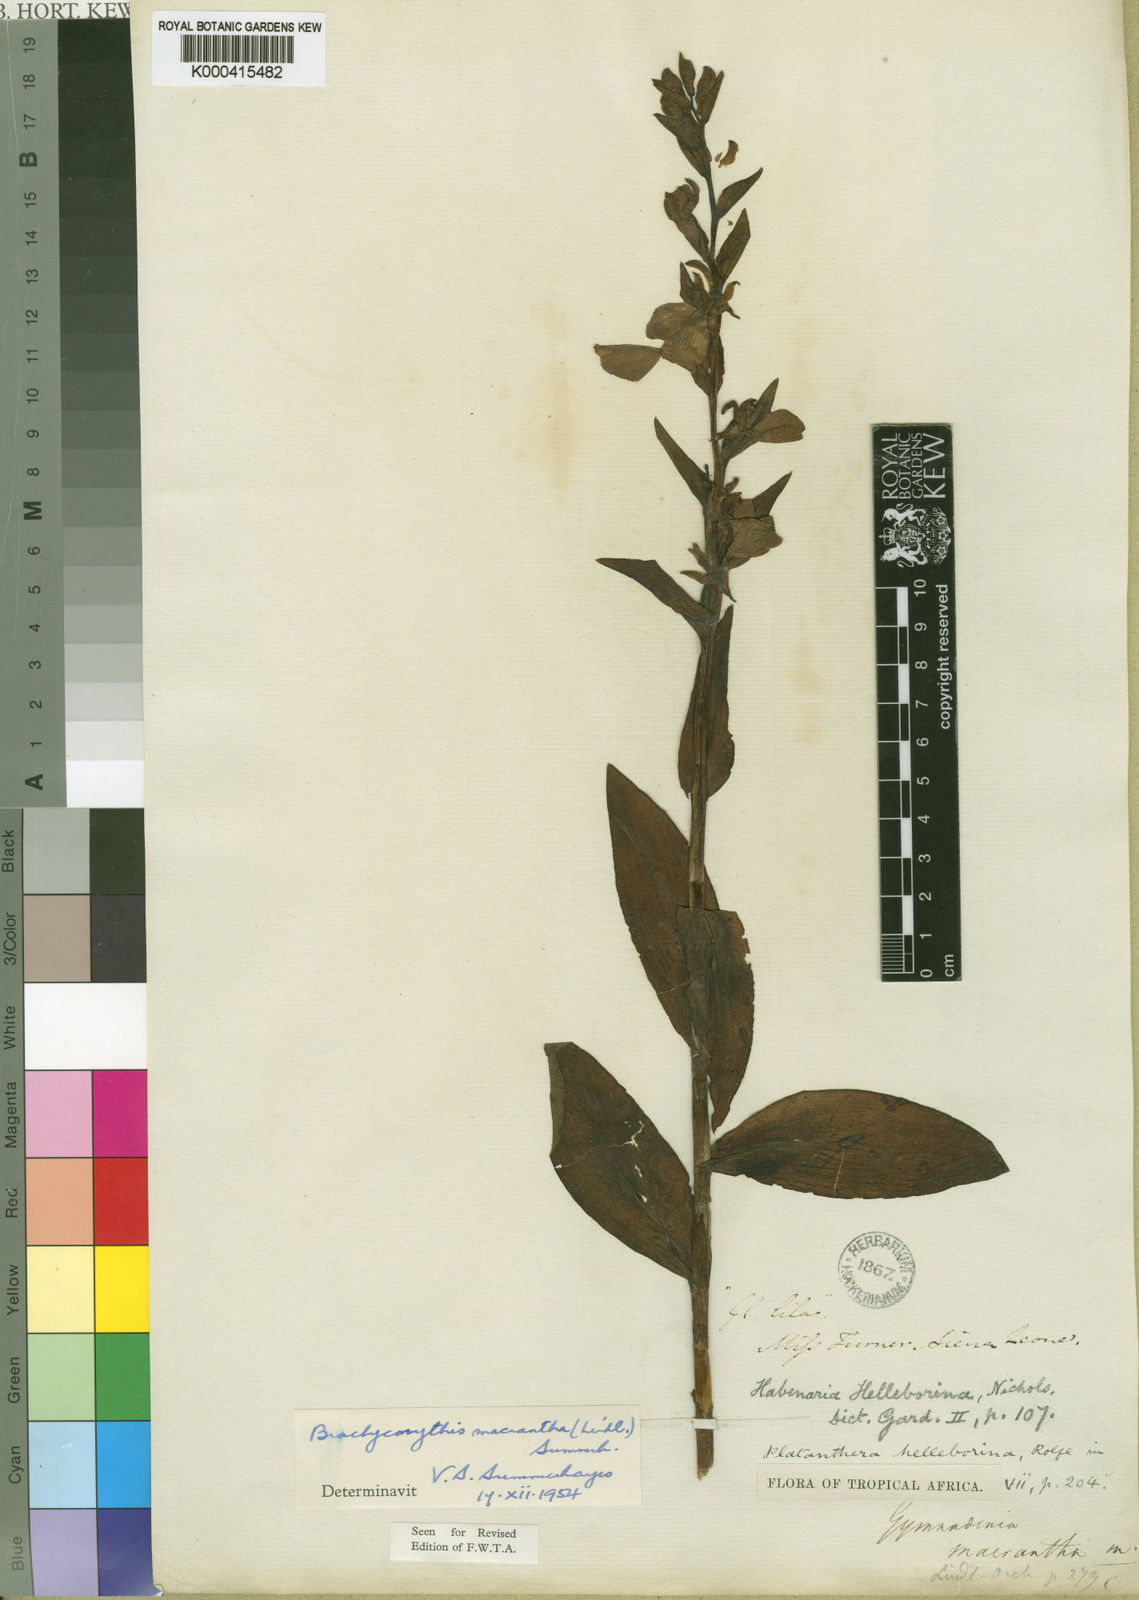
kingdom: Plantae
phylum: Tracheophyta
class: Liliopsida
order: Asparagales
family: Orchidaceae
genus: Brachycorythis
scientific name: Brachycorythis macrantha
